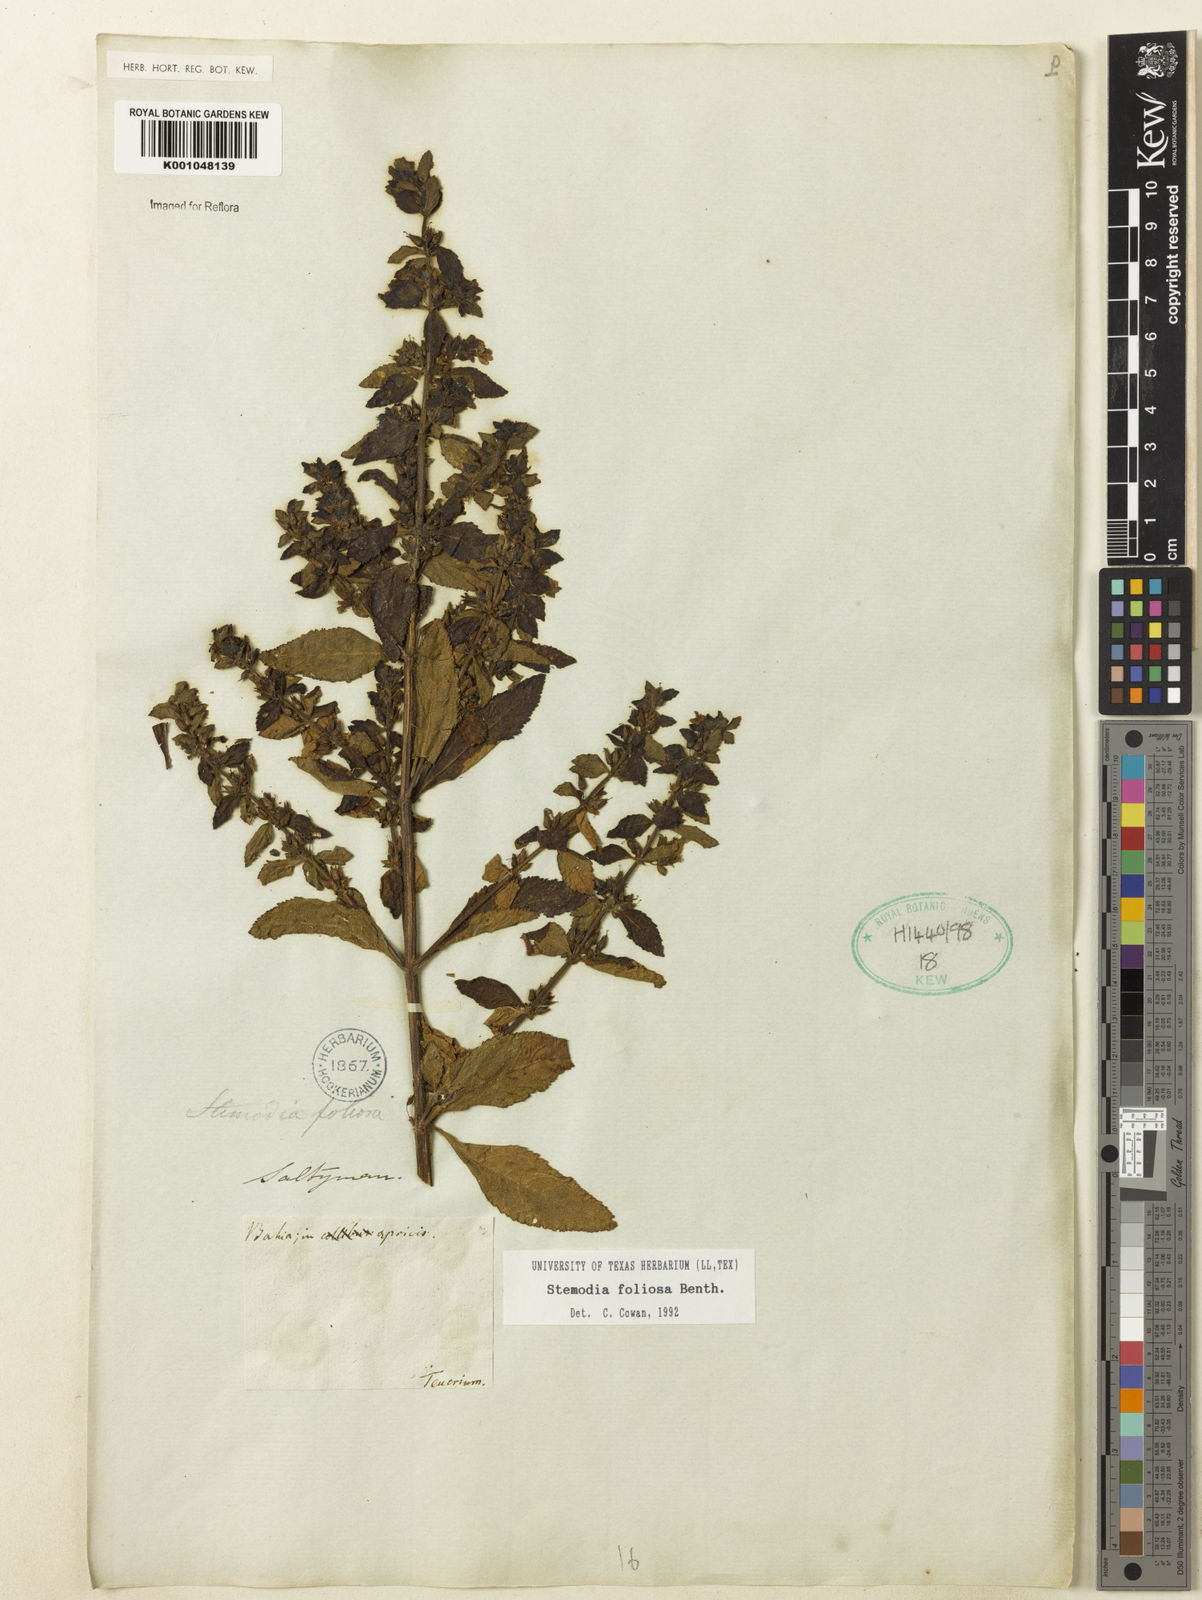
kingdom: Plantae
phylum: Tracheophyta
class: Magnoliopsida
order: Lamiales
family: Plantaginaceae
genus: Stemodia
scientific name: Stemodia foliosa
